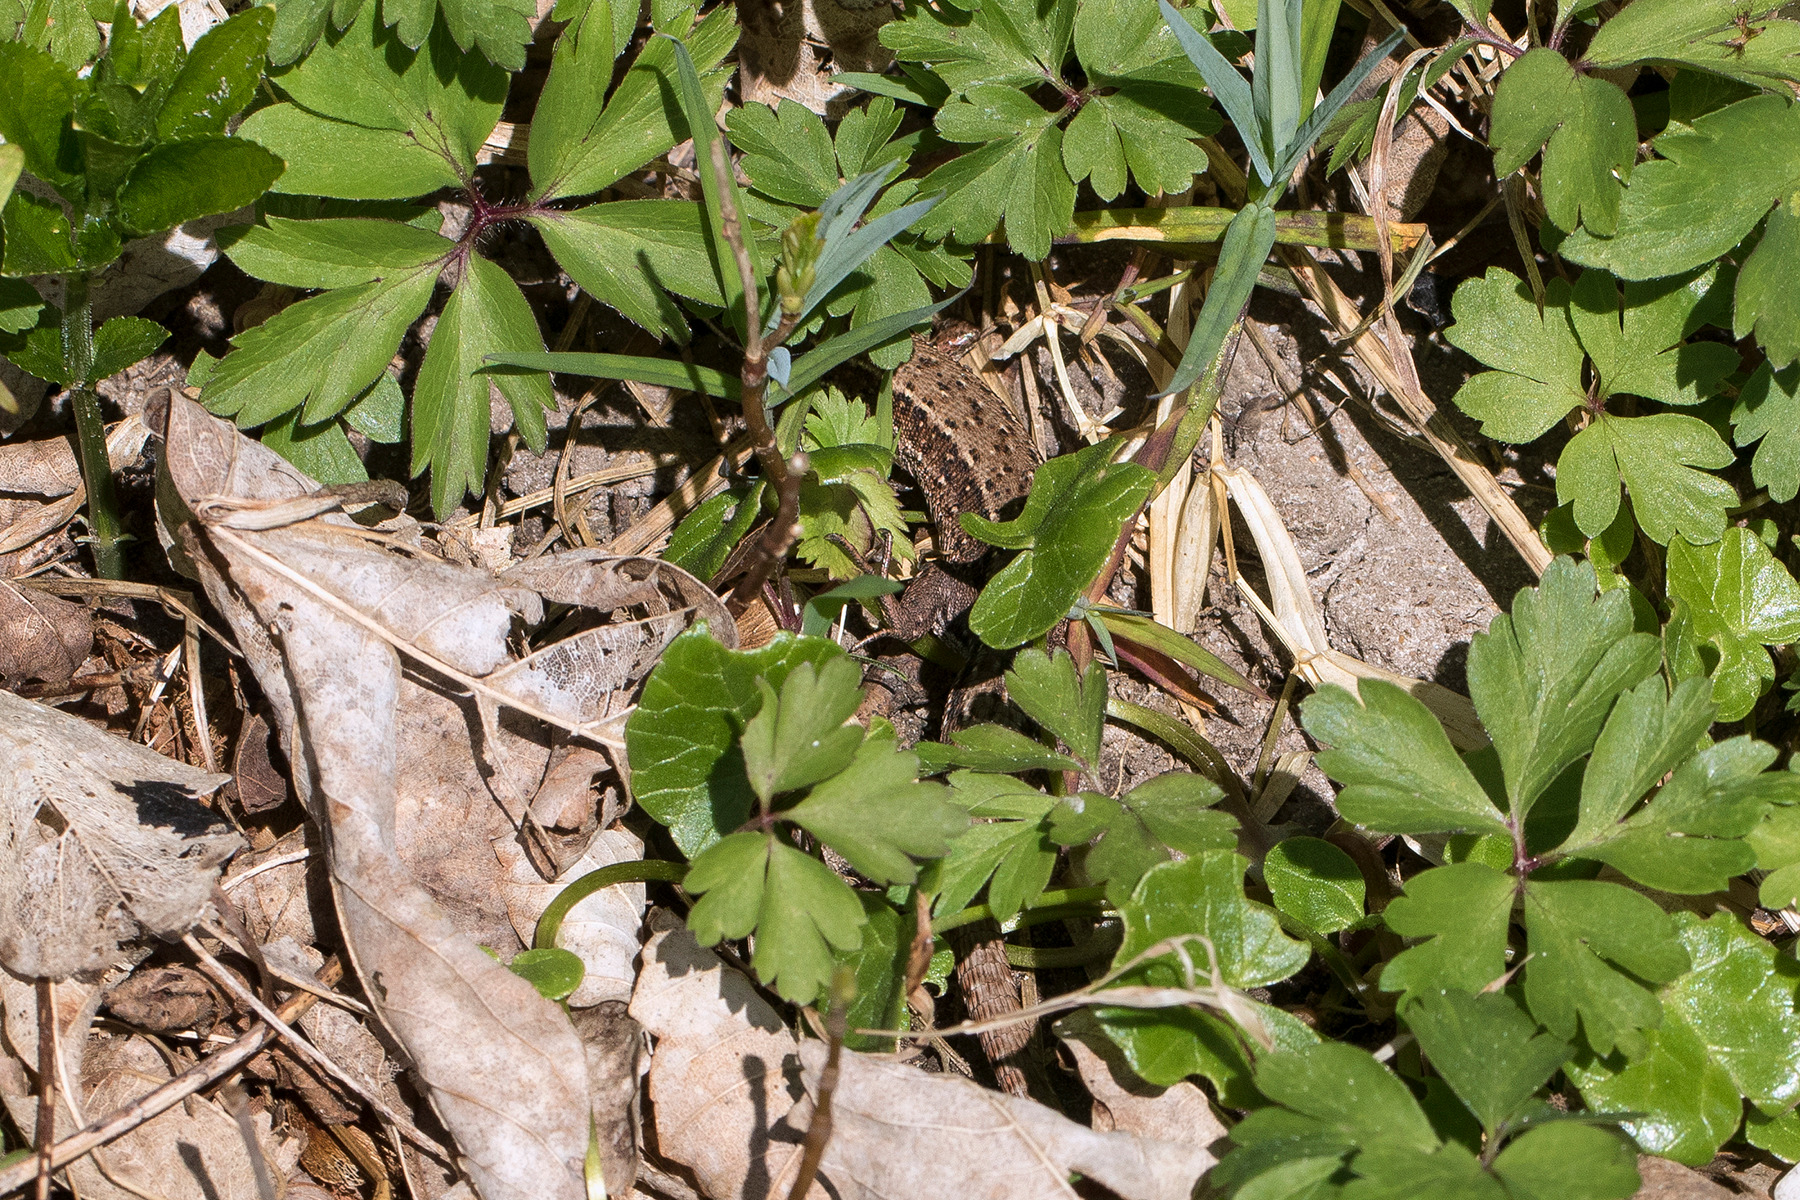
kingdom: Animalia
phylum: Chordata
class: Squamata
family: Lacertidae
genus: Zootoca
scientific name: Zootoca vivipara
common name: Skovfirben
